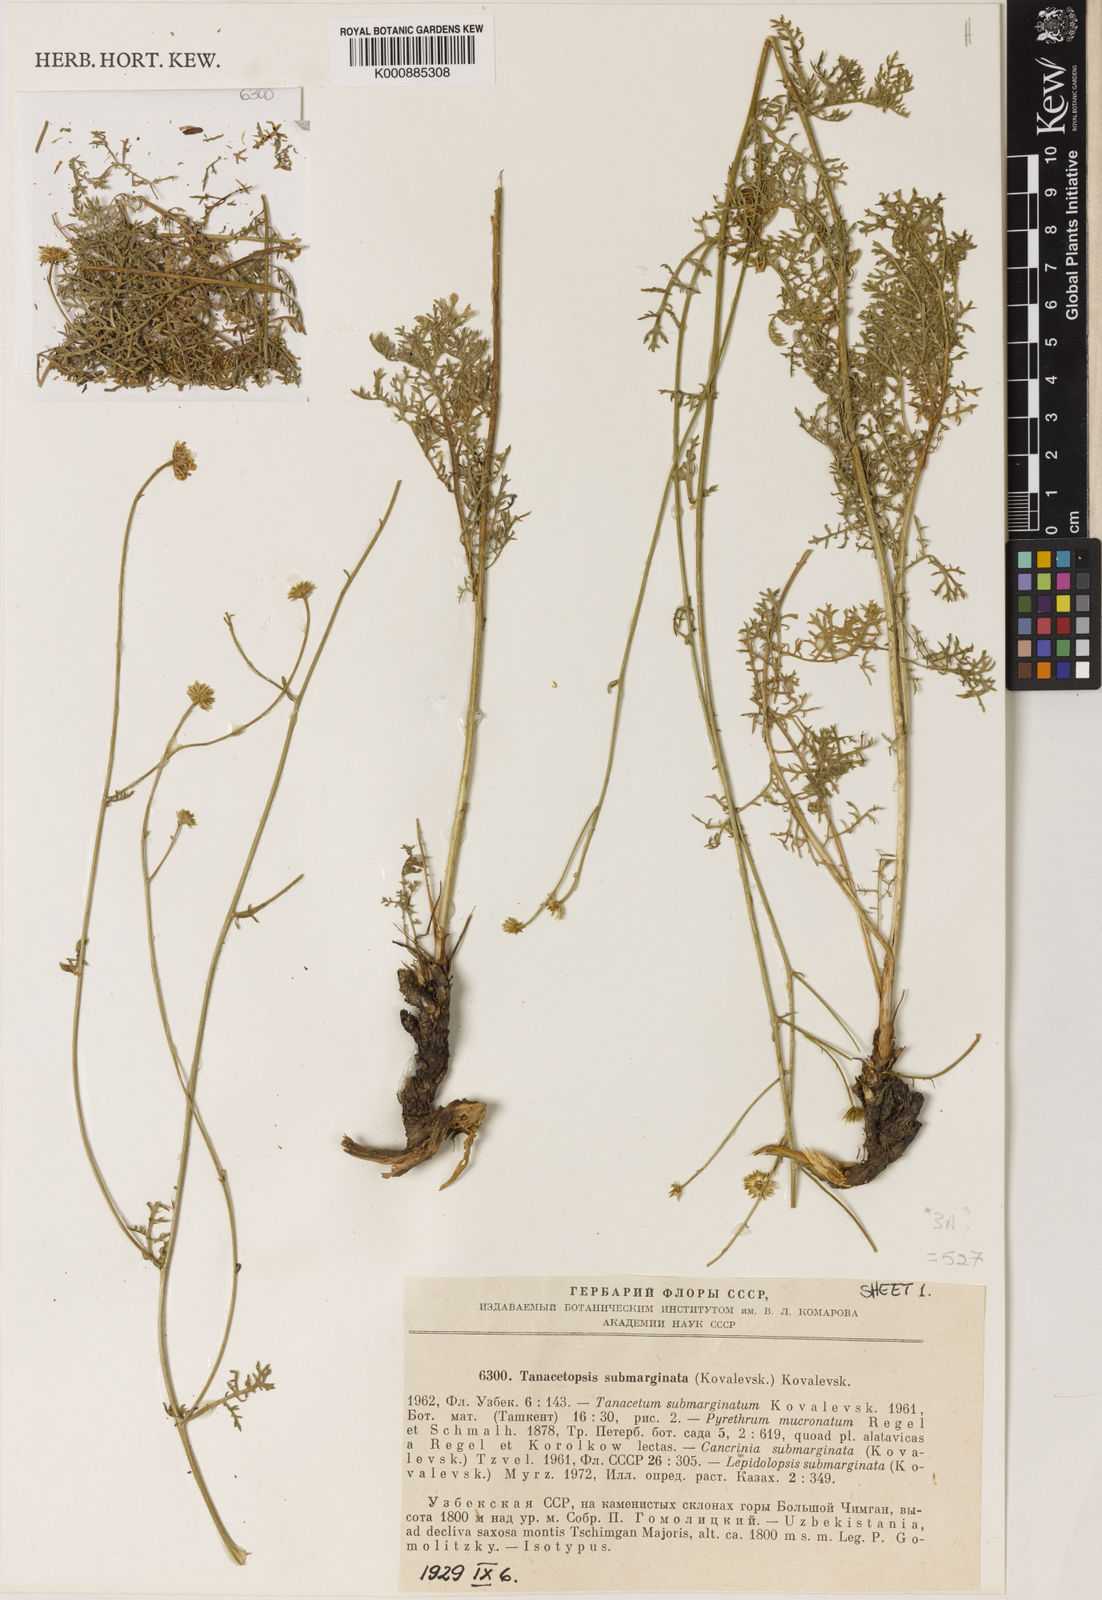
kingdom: Plantae
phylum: Tracheophyta
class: Magnoliopsida
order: Asterales
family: Asteraceae
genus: Tanacetopsis
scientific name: Tanacetopsis submarginata
